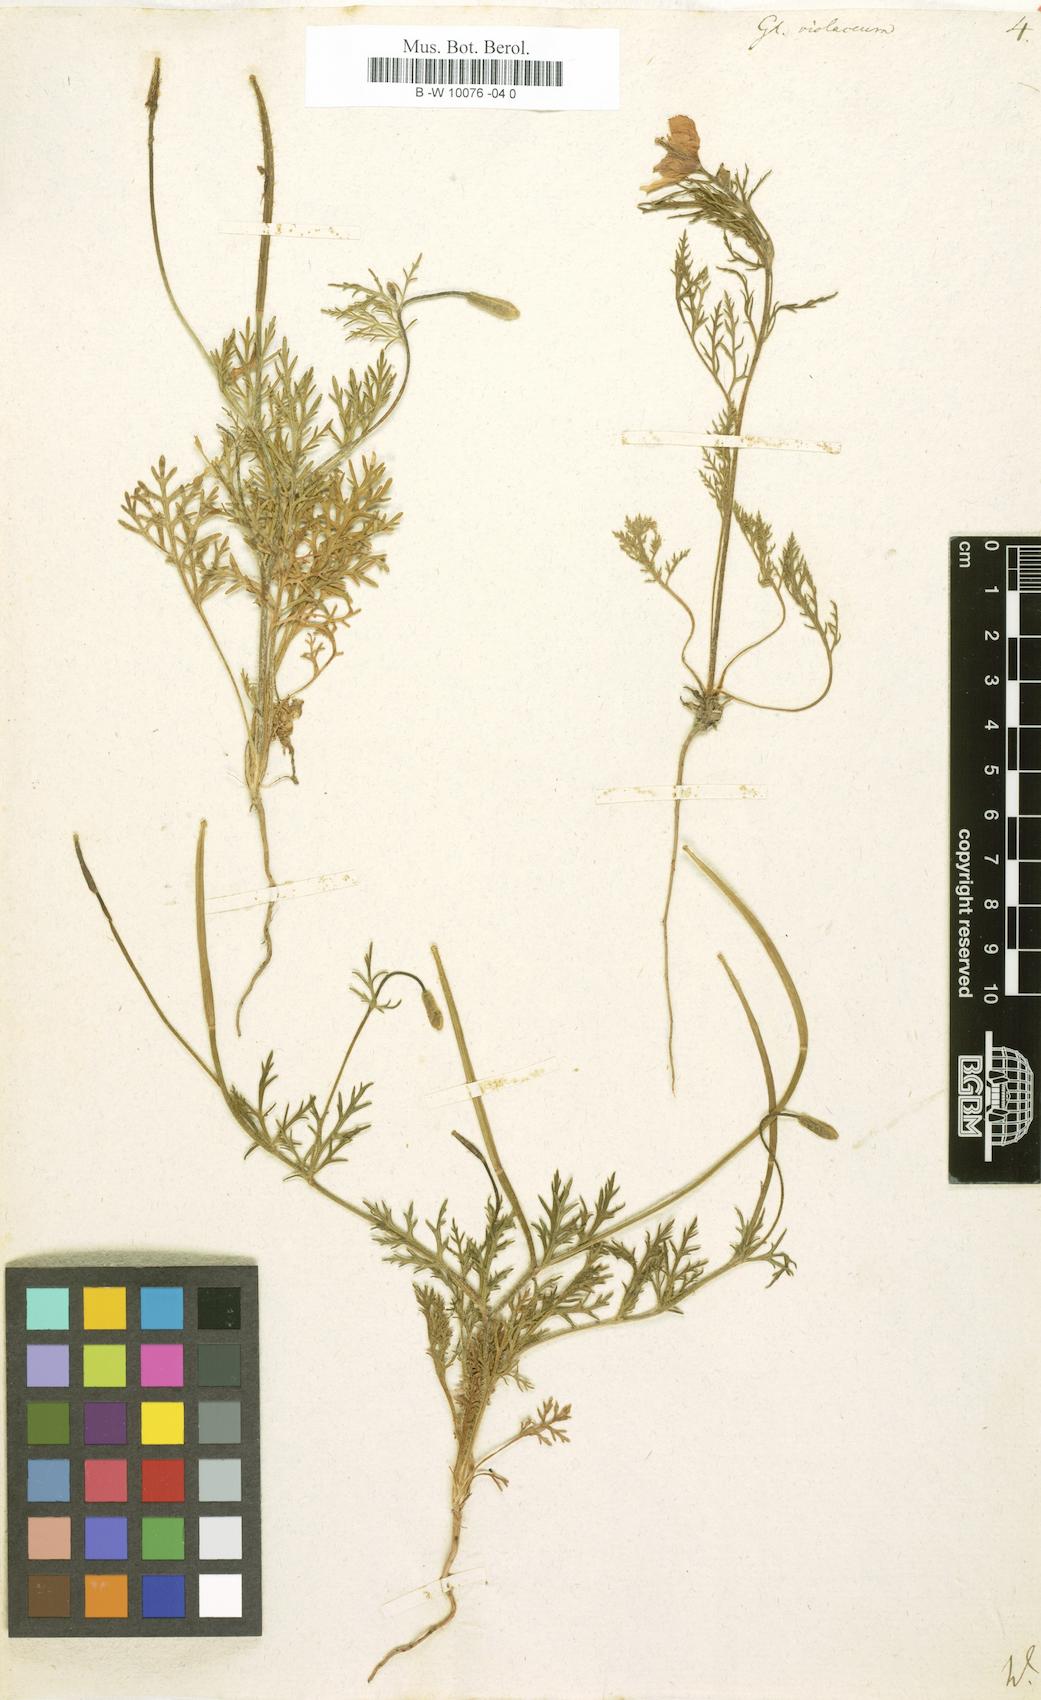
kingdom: Plantae
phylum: Tracheophyta
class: Magnoliopsida
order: Ranunculales
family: Papaveraceae
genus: Roemeria
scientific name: Roemeria hybrida
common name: Violet horned-poppy
